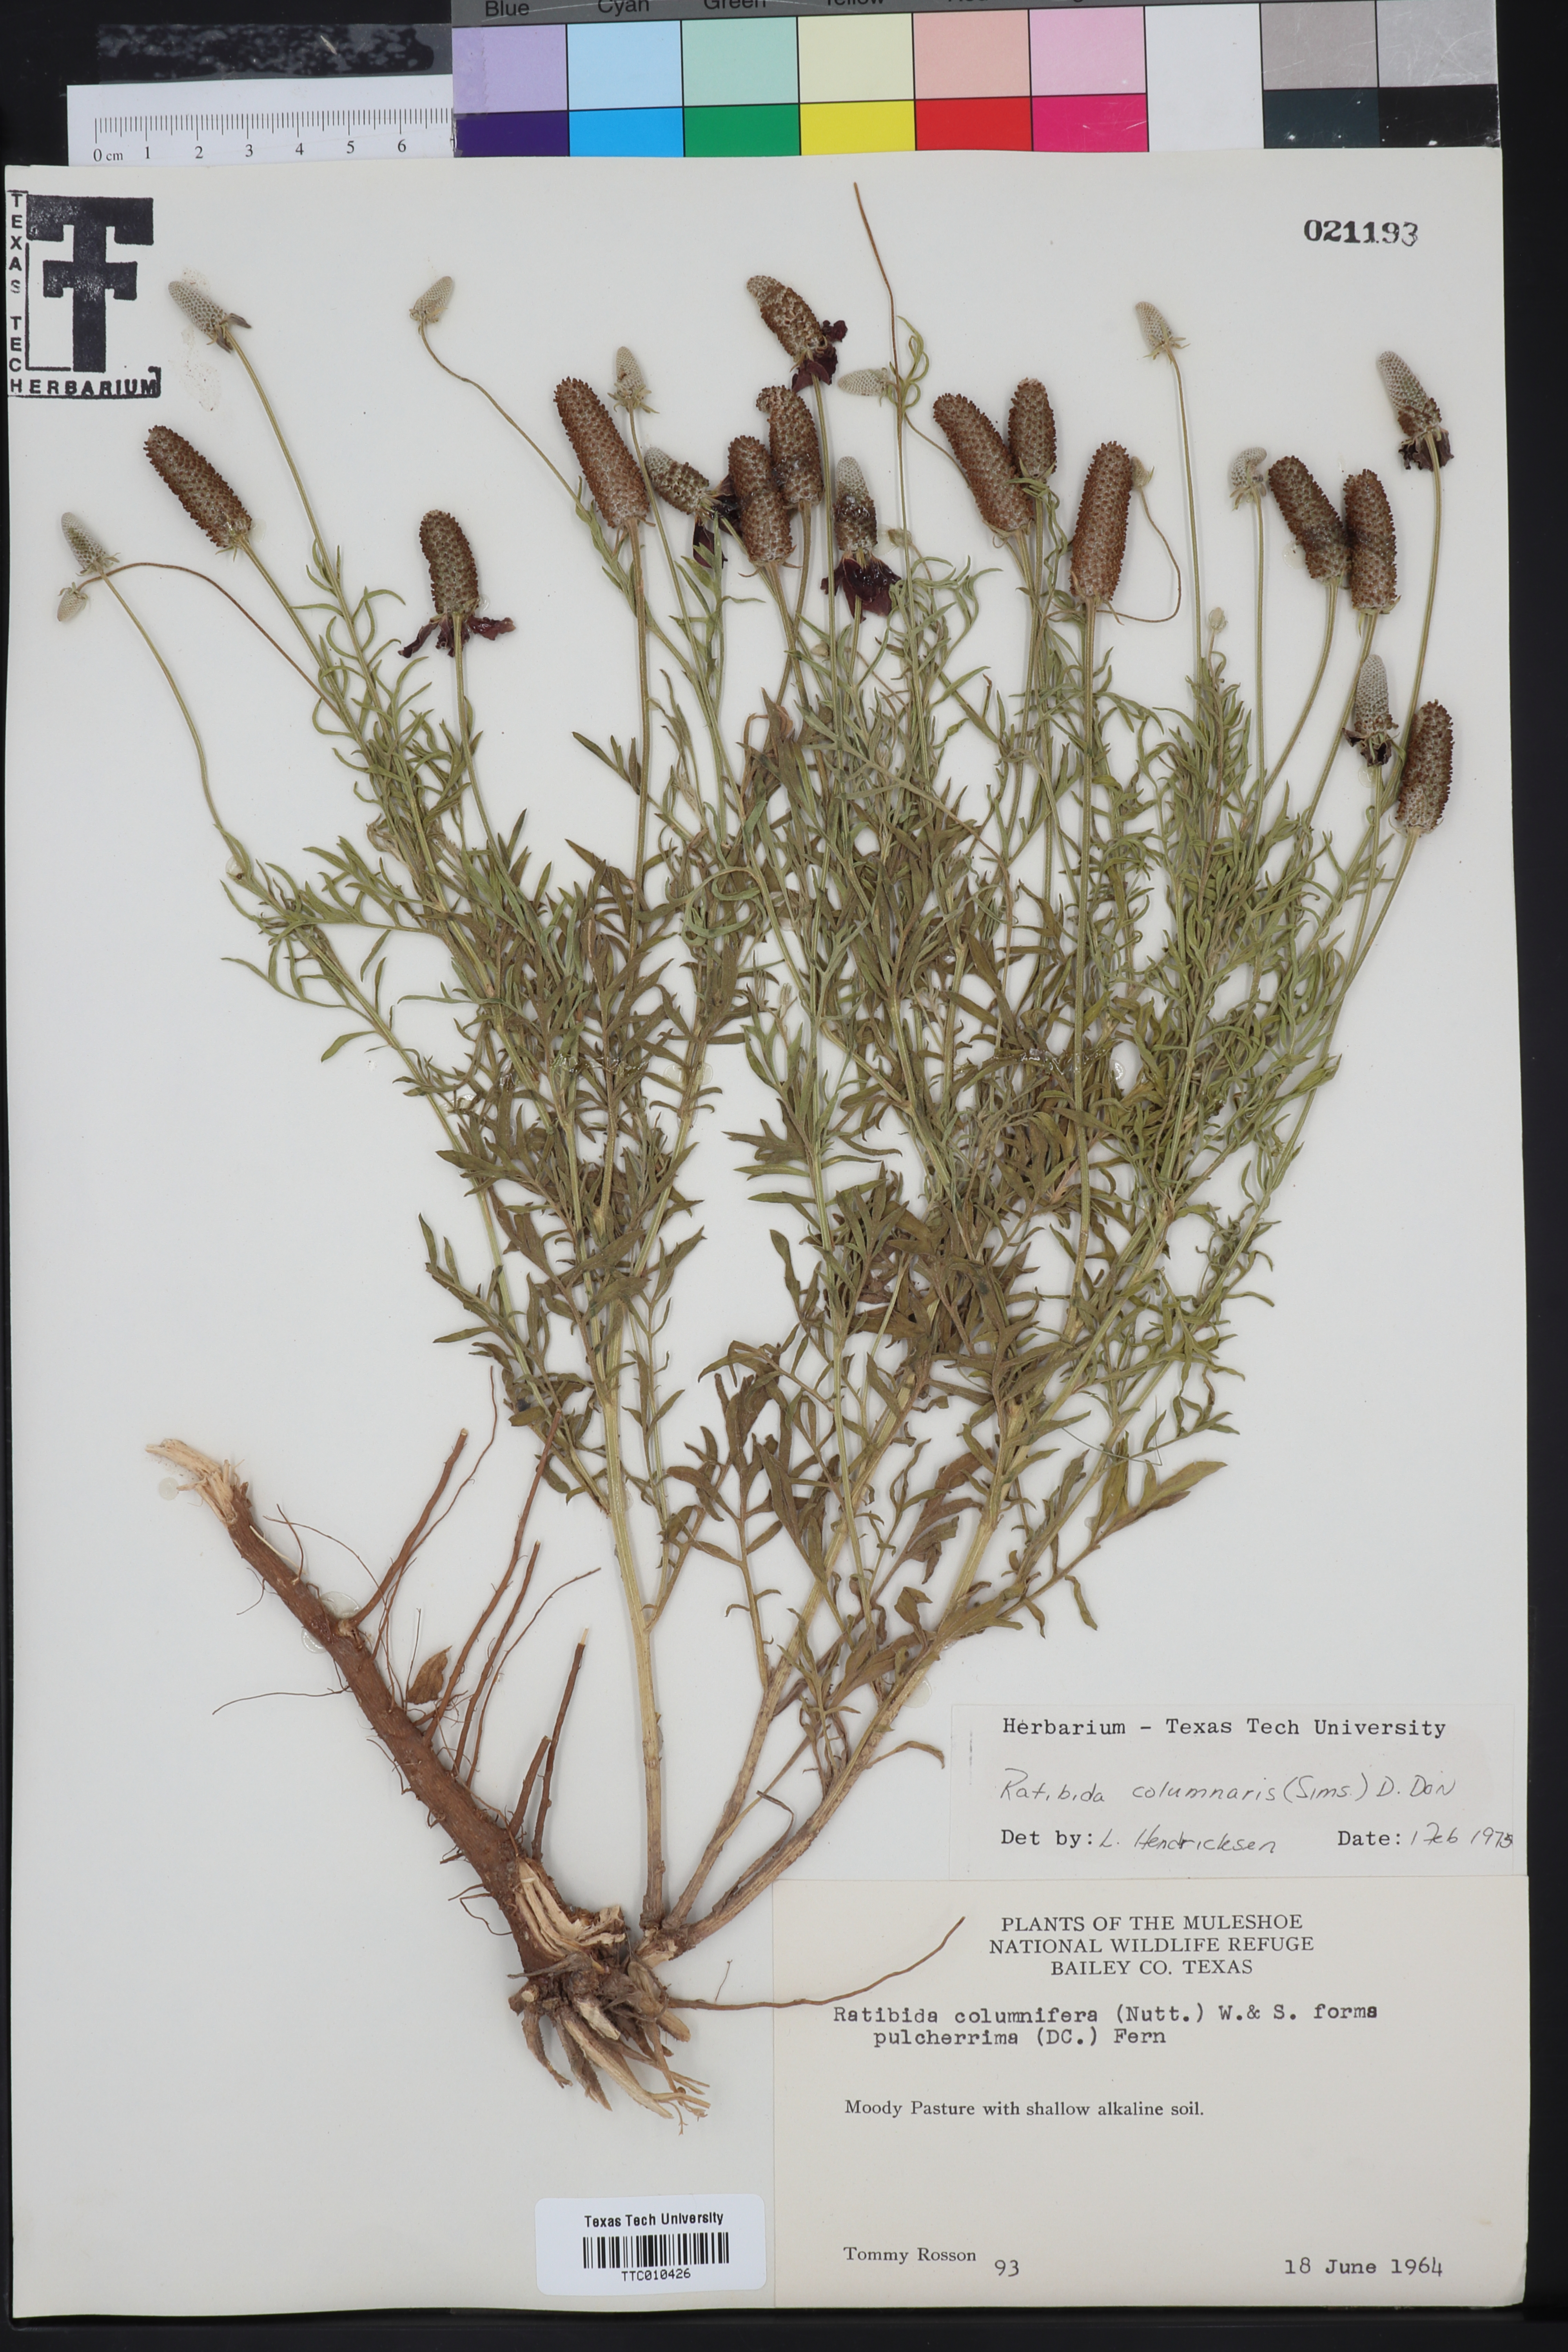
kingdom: Plantae
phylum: Tracheophyta
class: Magnoliopsida
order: Asterales
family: Asteraceae
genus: Ratibida
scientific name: Ratibida columnifera
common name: Prairie coneflower
